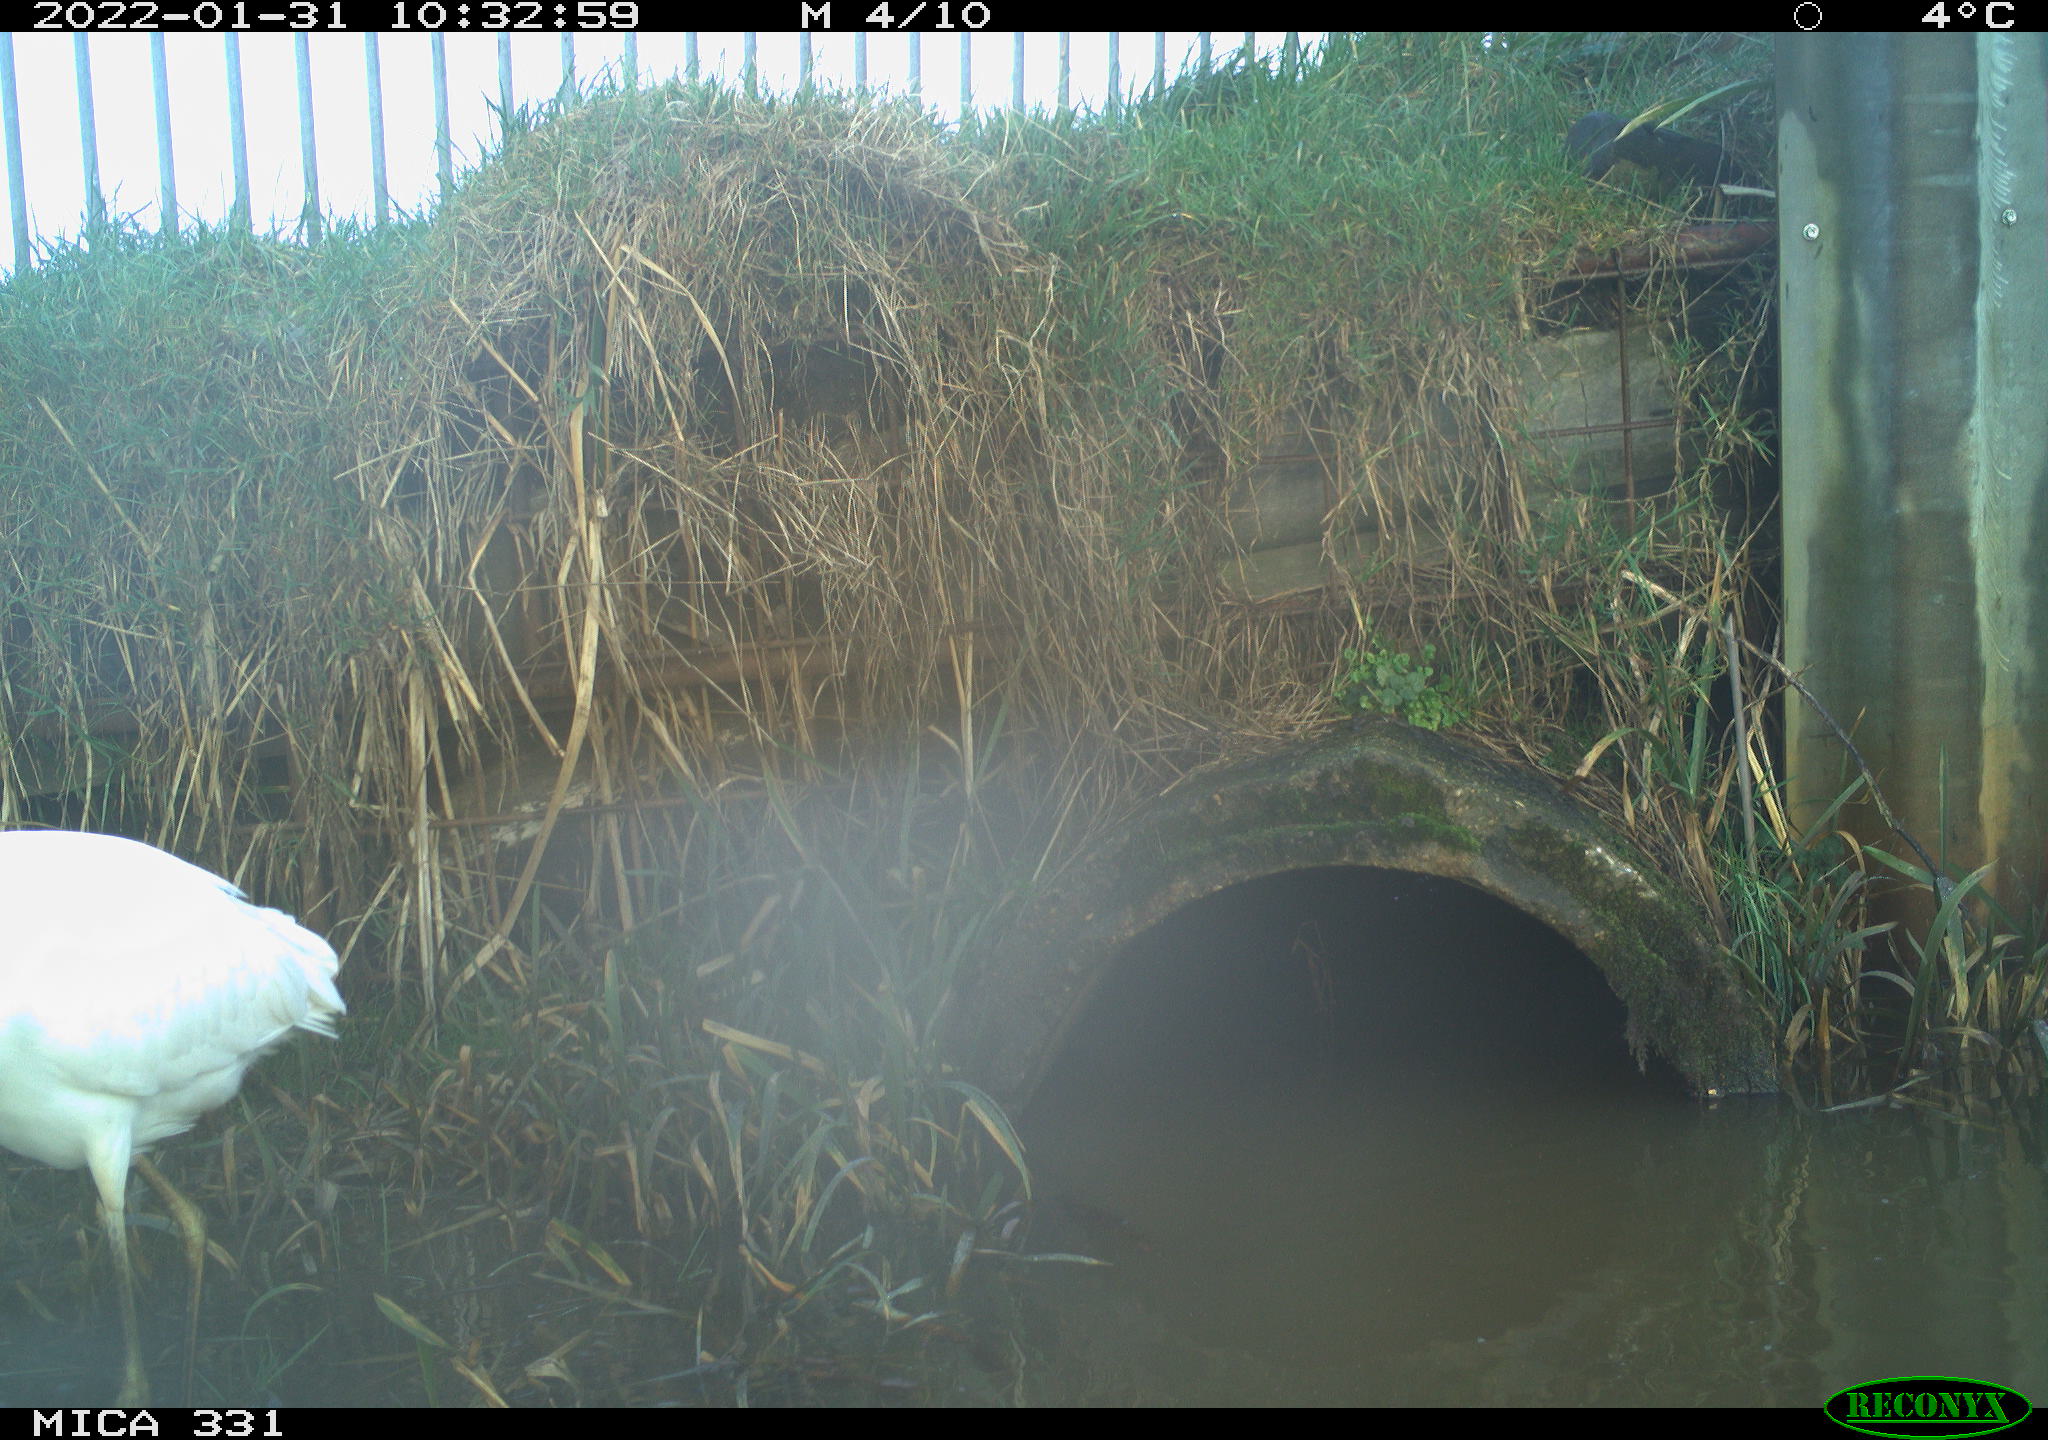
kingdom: Animalia
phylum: Chordata
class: Aves
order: Pelecaniformes
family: Ardeidae
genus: Ardea
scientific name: Ardea alba
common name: Great egret
